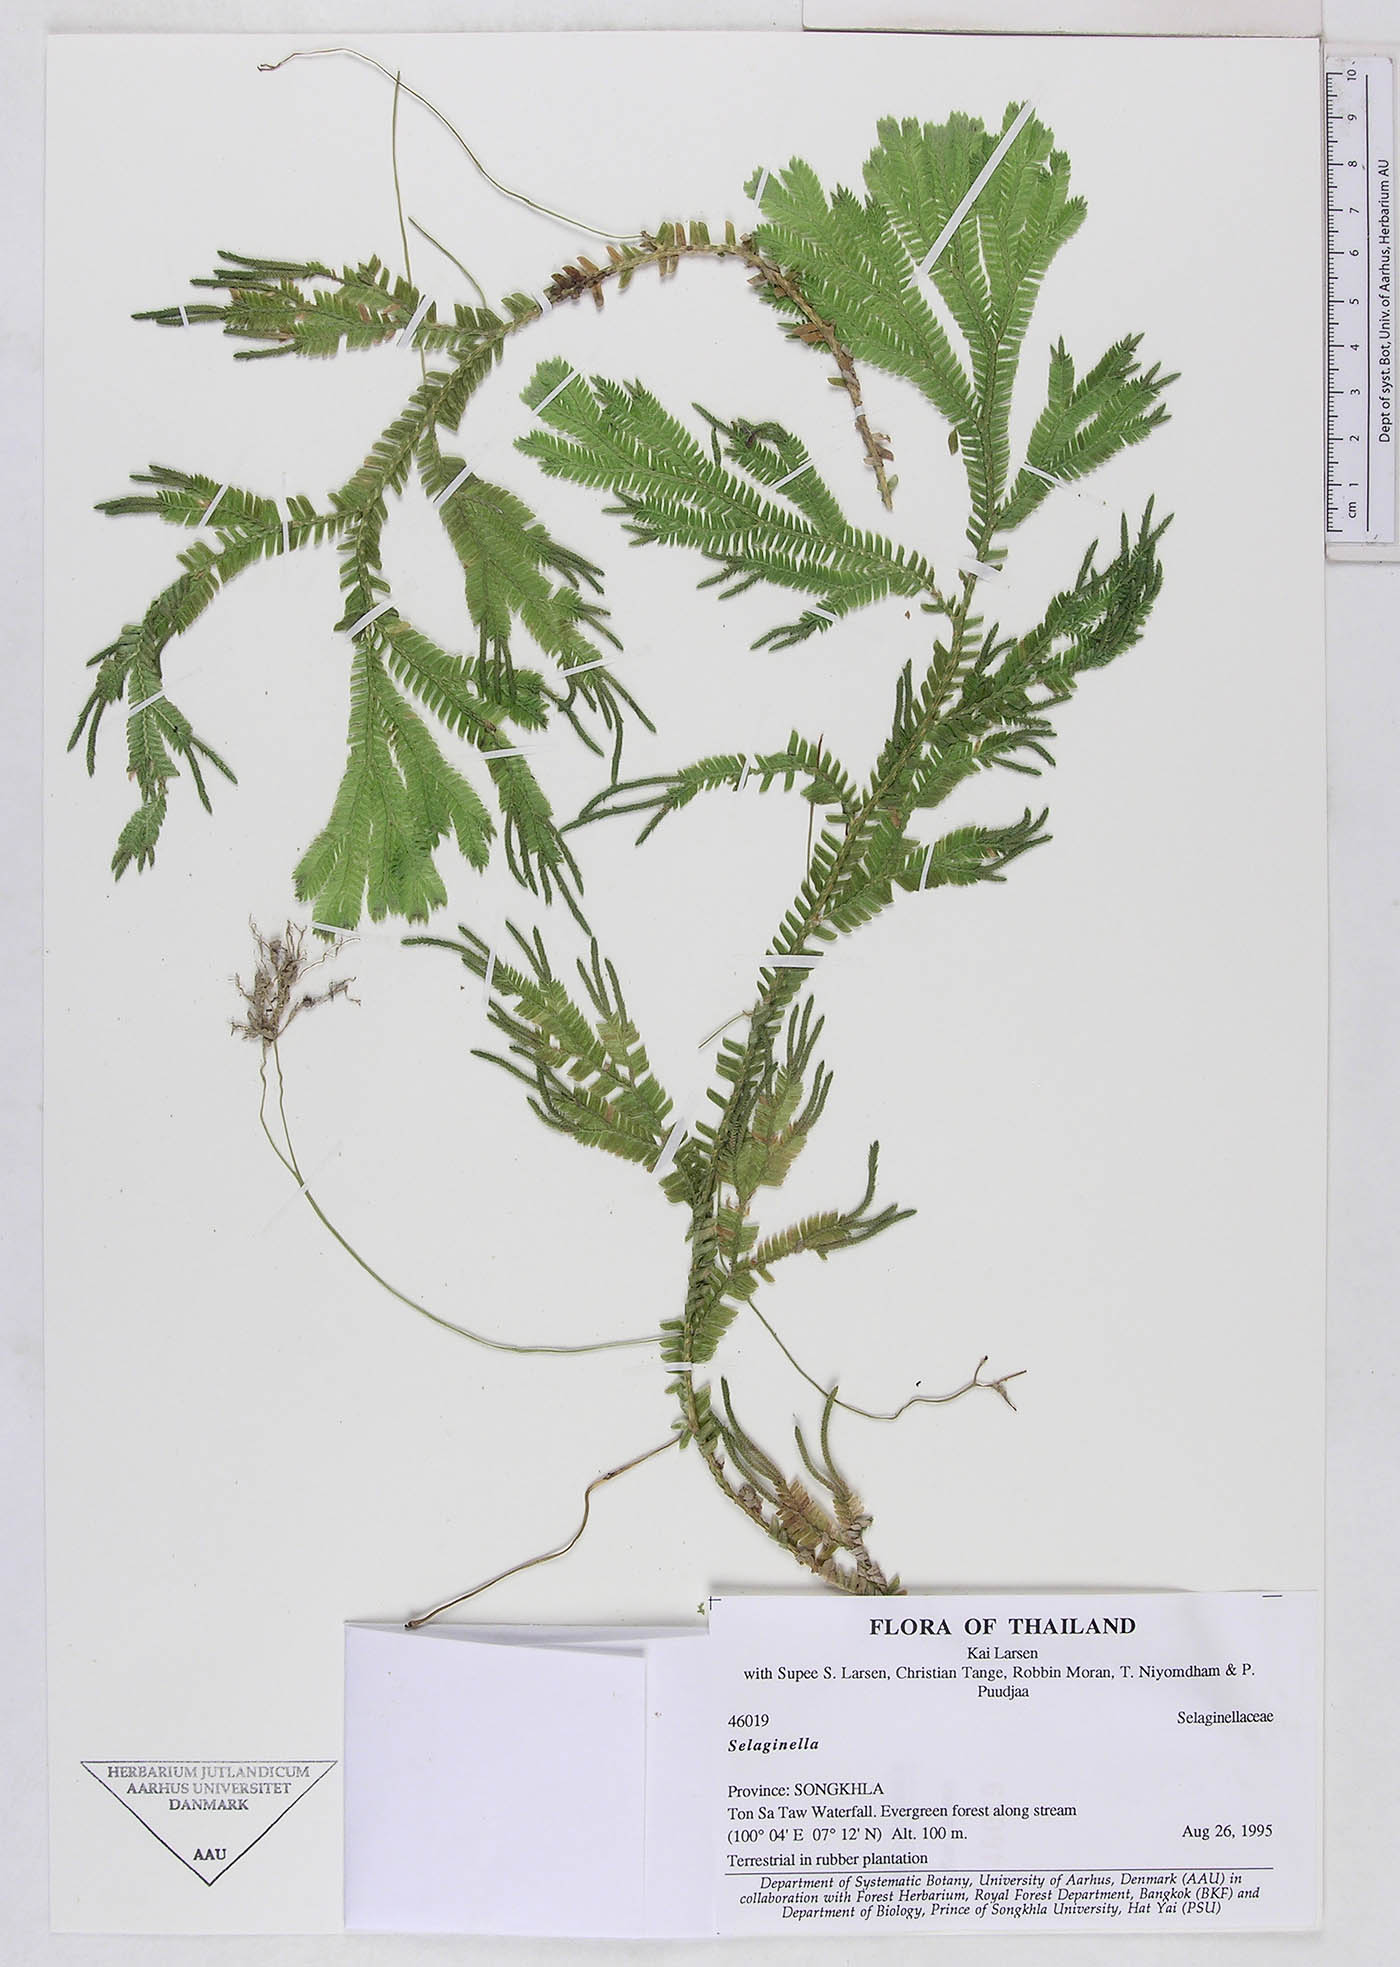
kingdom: Plantae
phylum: Tracheophyta
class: Lycopodiopsida
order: Selaginellales
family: Selaginellaceae
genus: Selaginella
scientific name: Selaginella
